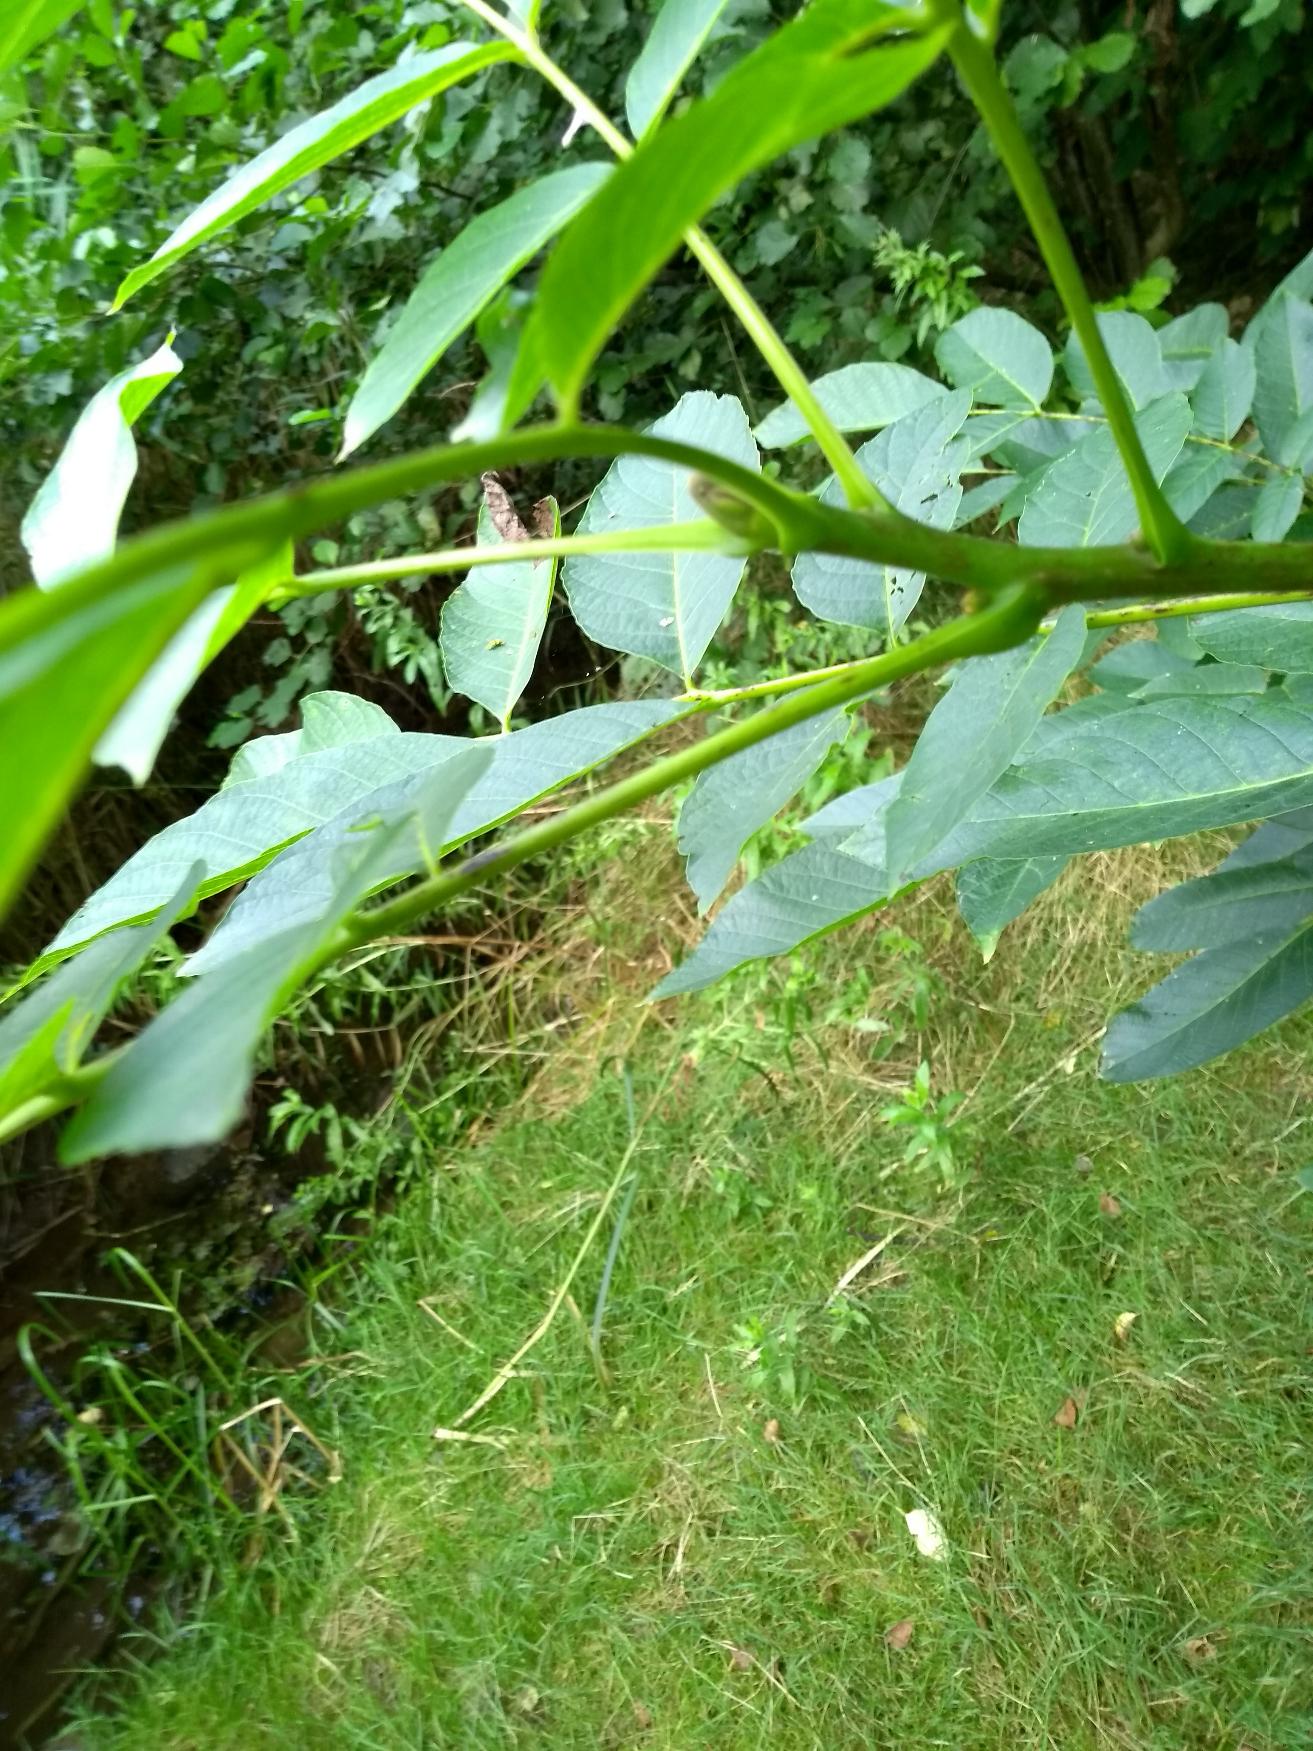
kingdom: Plantae
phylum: Tracheophyta
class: Magnoliopsida
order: Fagales
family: Juglandaceae
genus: Juglans
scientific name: Juglans regia
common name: Almindelig valnød
